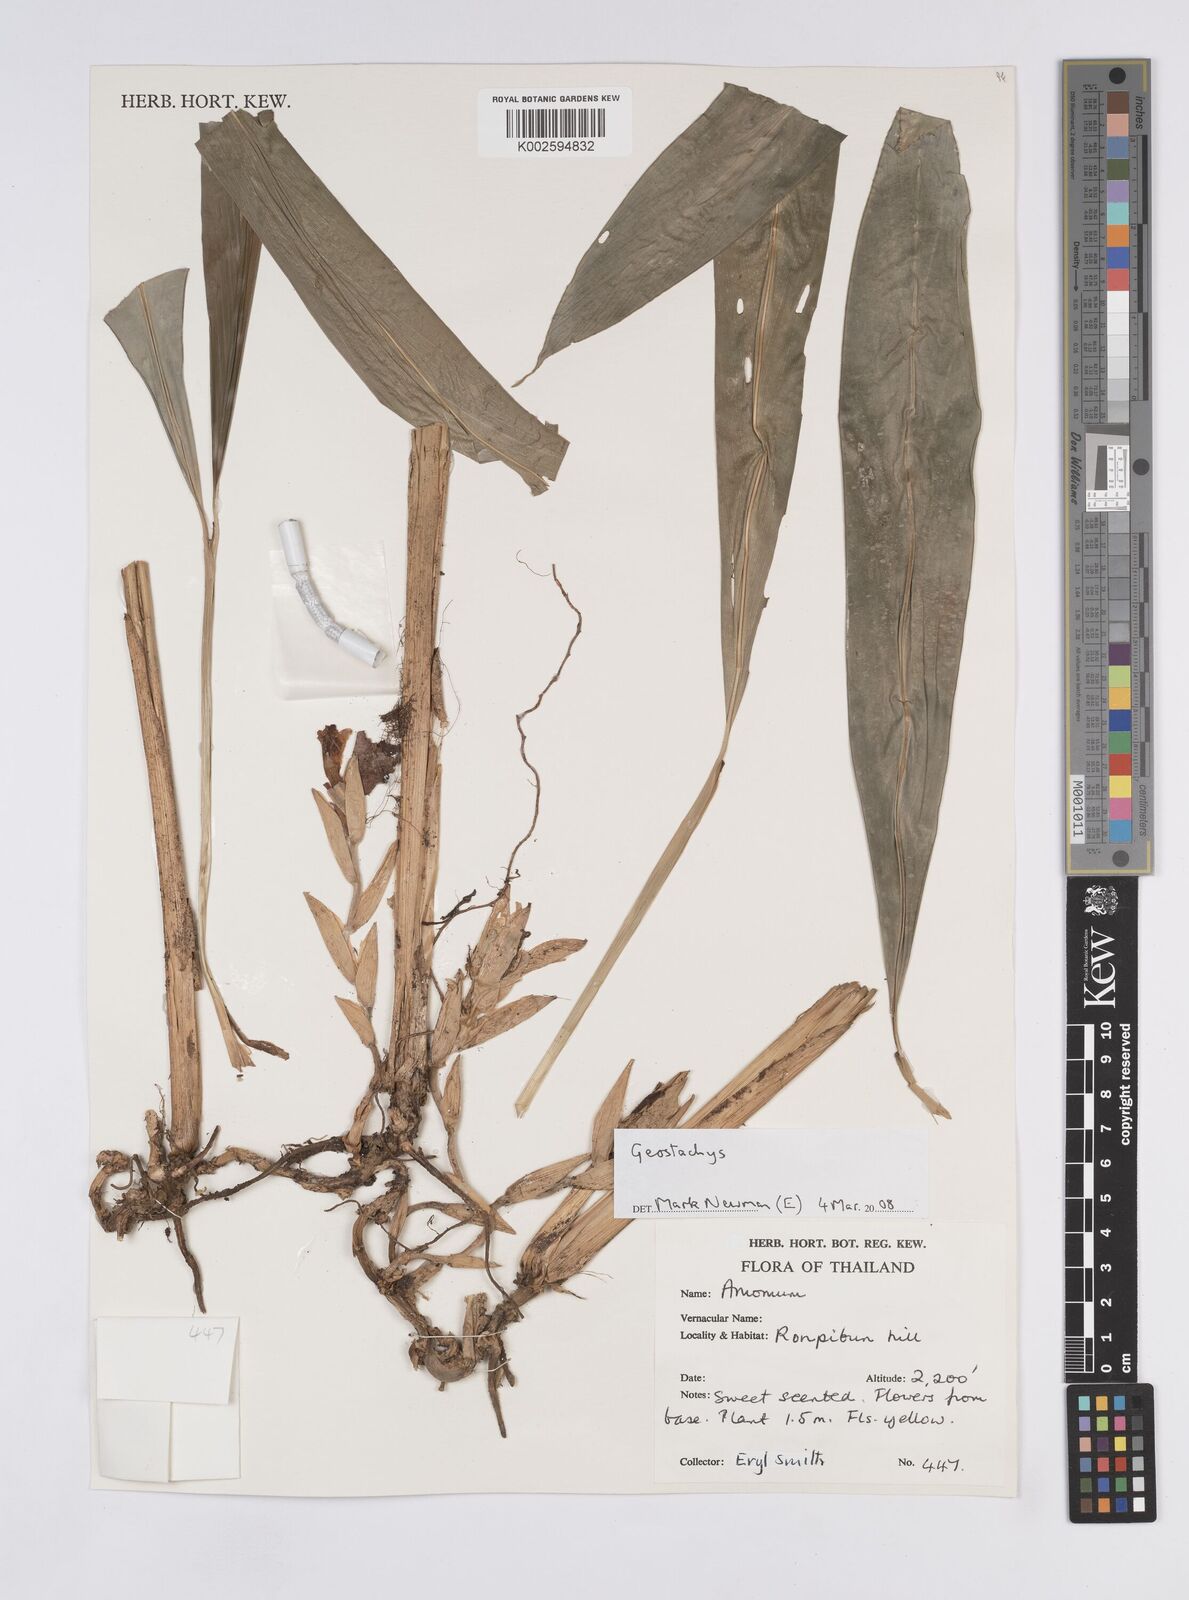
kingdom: Plantae
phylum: Tracheophyta
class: Liliopsida
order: Zingiberales
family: Zingiberaceae
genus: Geostachys
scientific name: Geostachys
